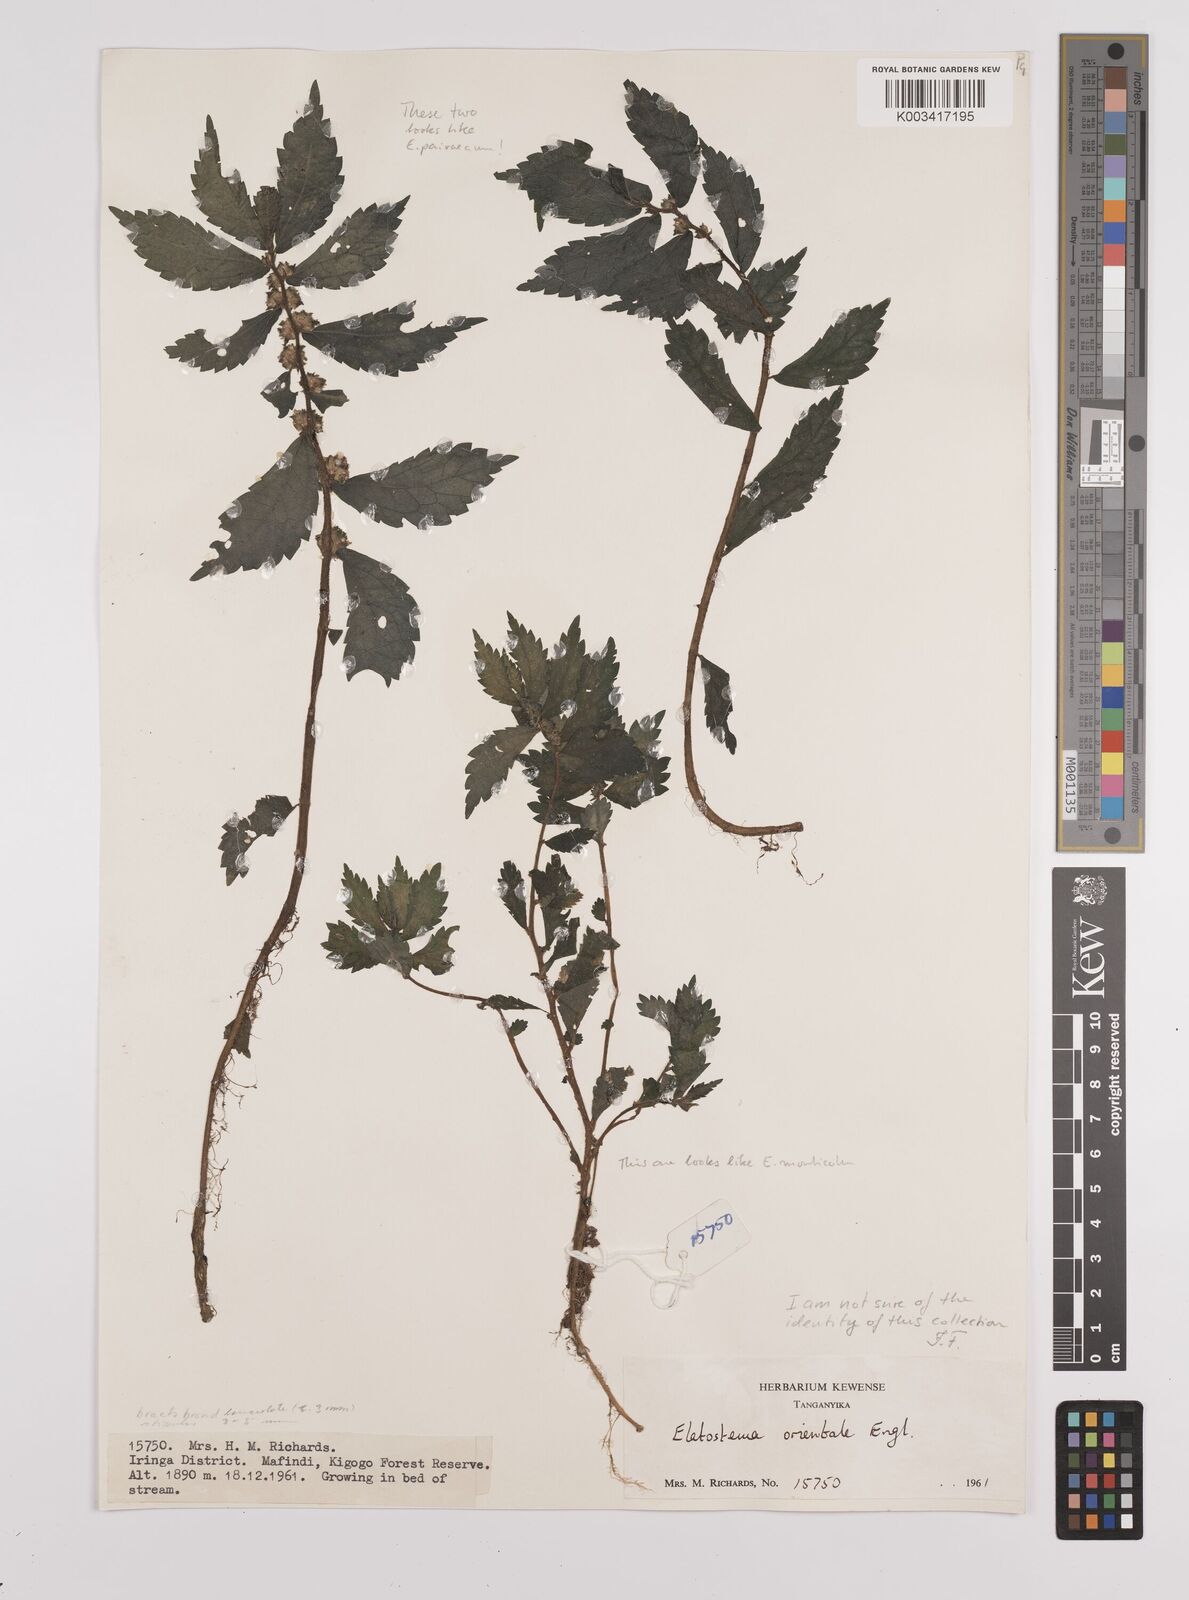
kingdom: Plantae
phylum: Tracheophyta
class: Magnoliopsida
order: Rosales
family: Urticaceae
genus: Elatostema
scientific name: Elatostema monticola
